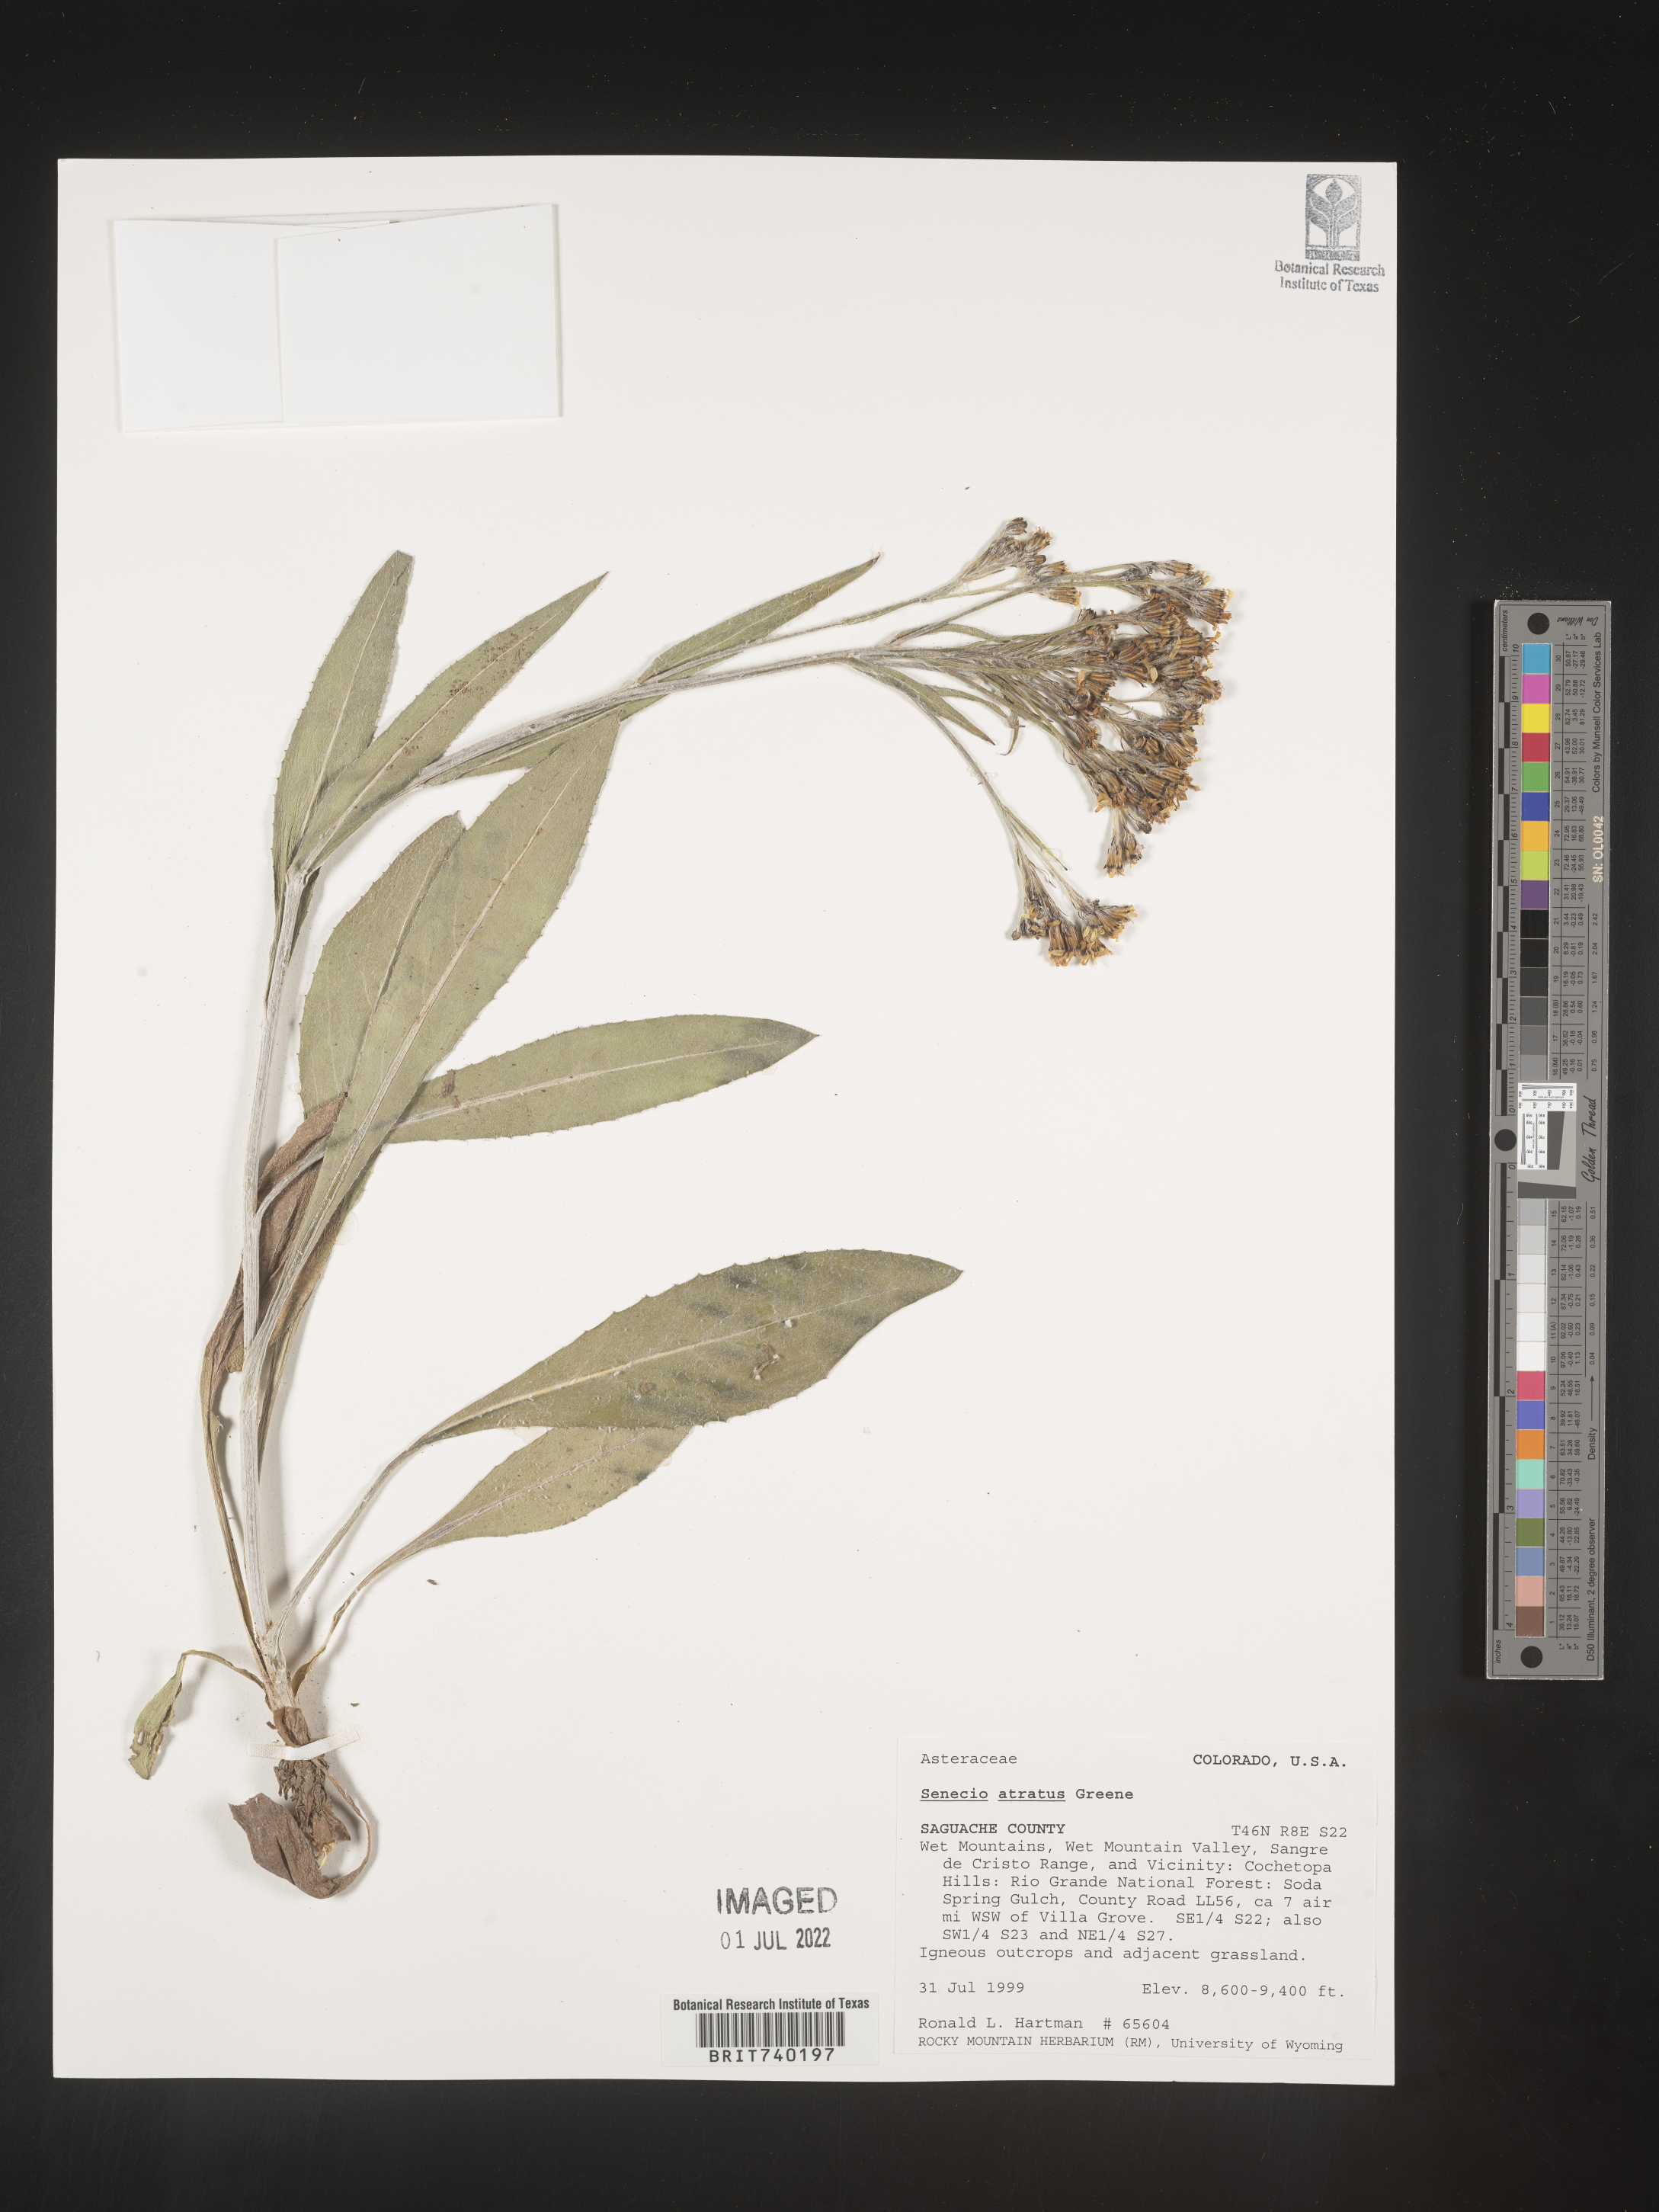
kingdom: Plantae
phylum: Tracheophyta
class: Magnoliopsida
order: Asterales
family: Asteraceae
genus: Senecio
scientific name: Senecio atratus
